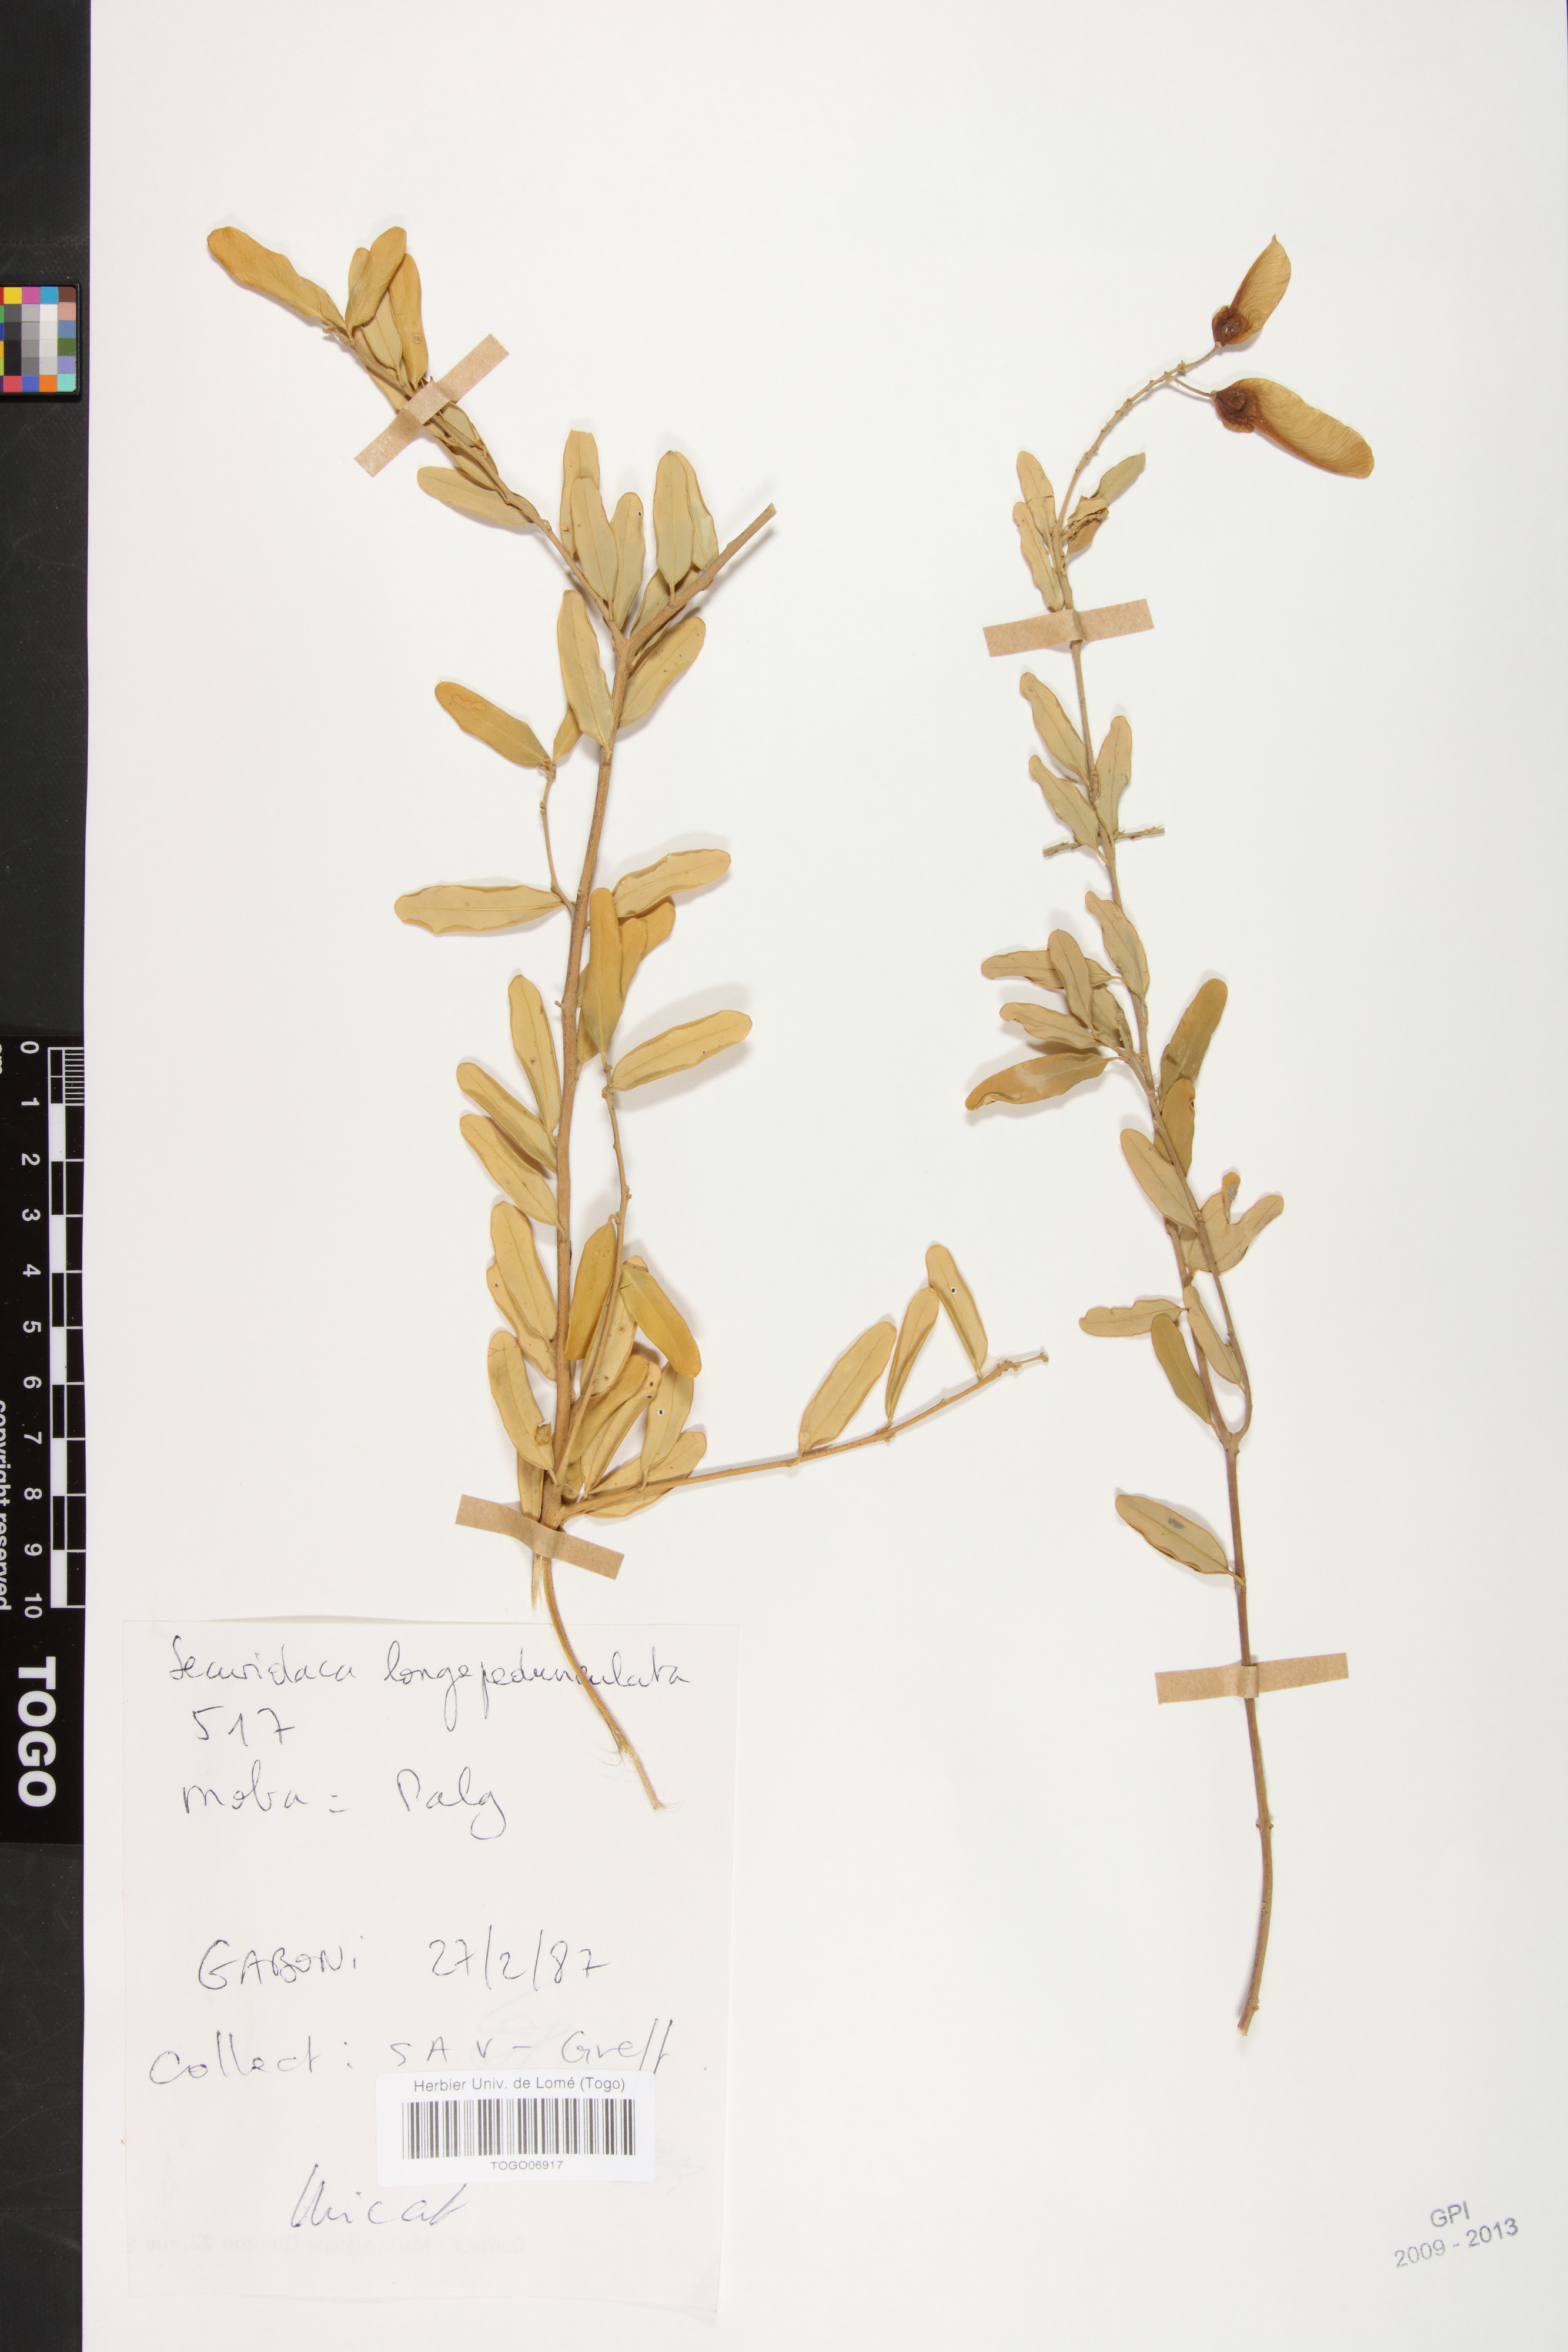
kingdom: Plantae
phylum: Tracheophyta
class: Magnoliopsida
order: Fabales
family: Polygalaceae
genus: Securidaca
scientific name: Securidaca longepedunculata
